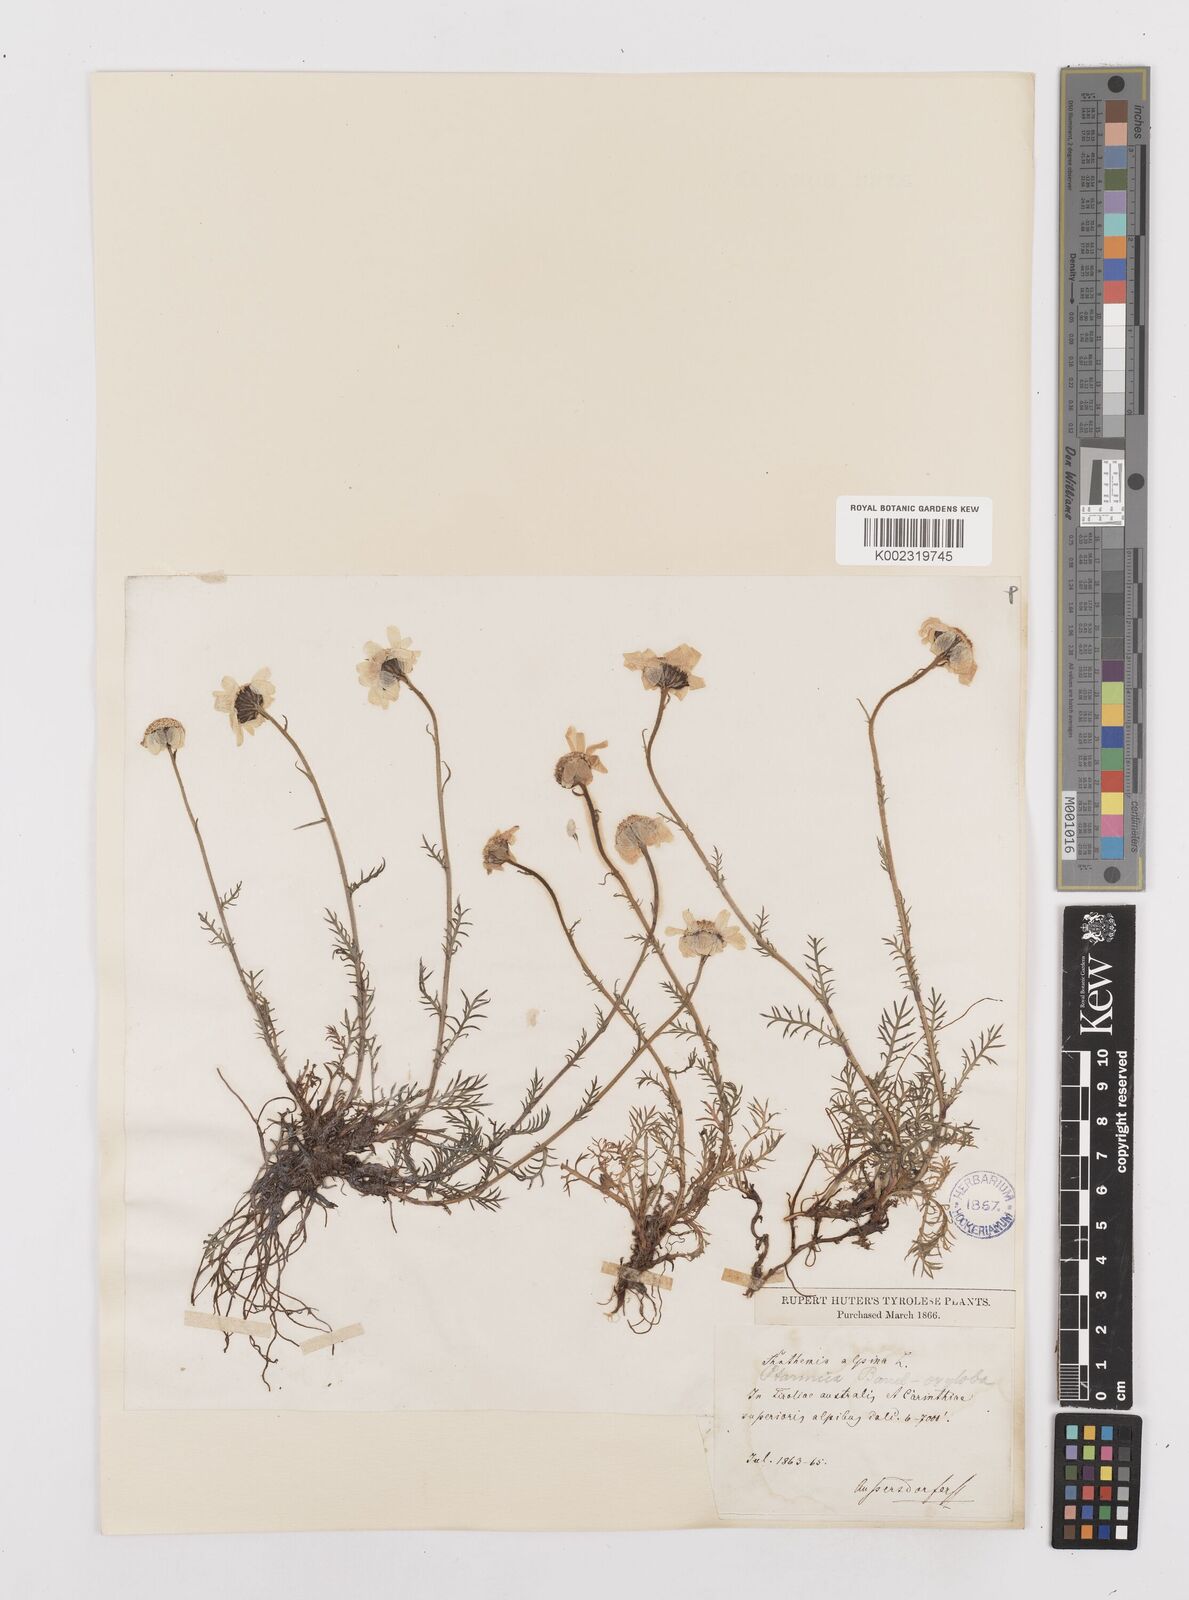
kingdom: Plantae
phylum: Tracheophyta
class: Magnoliopsida
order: Asterales
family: Asteraceae
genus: Achillea
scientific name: Achillea oxyloba
